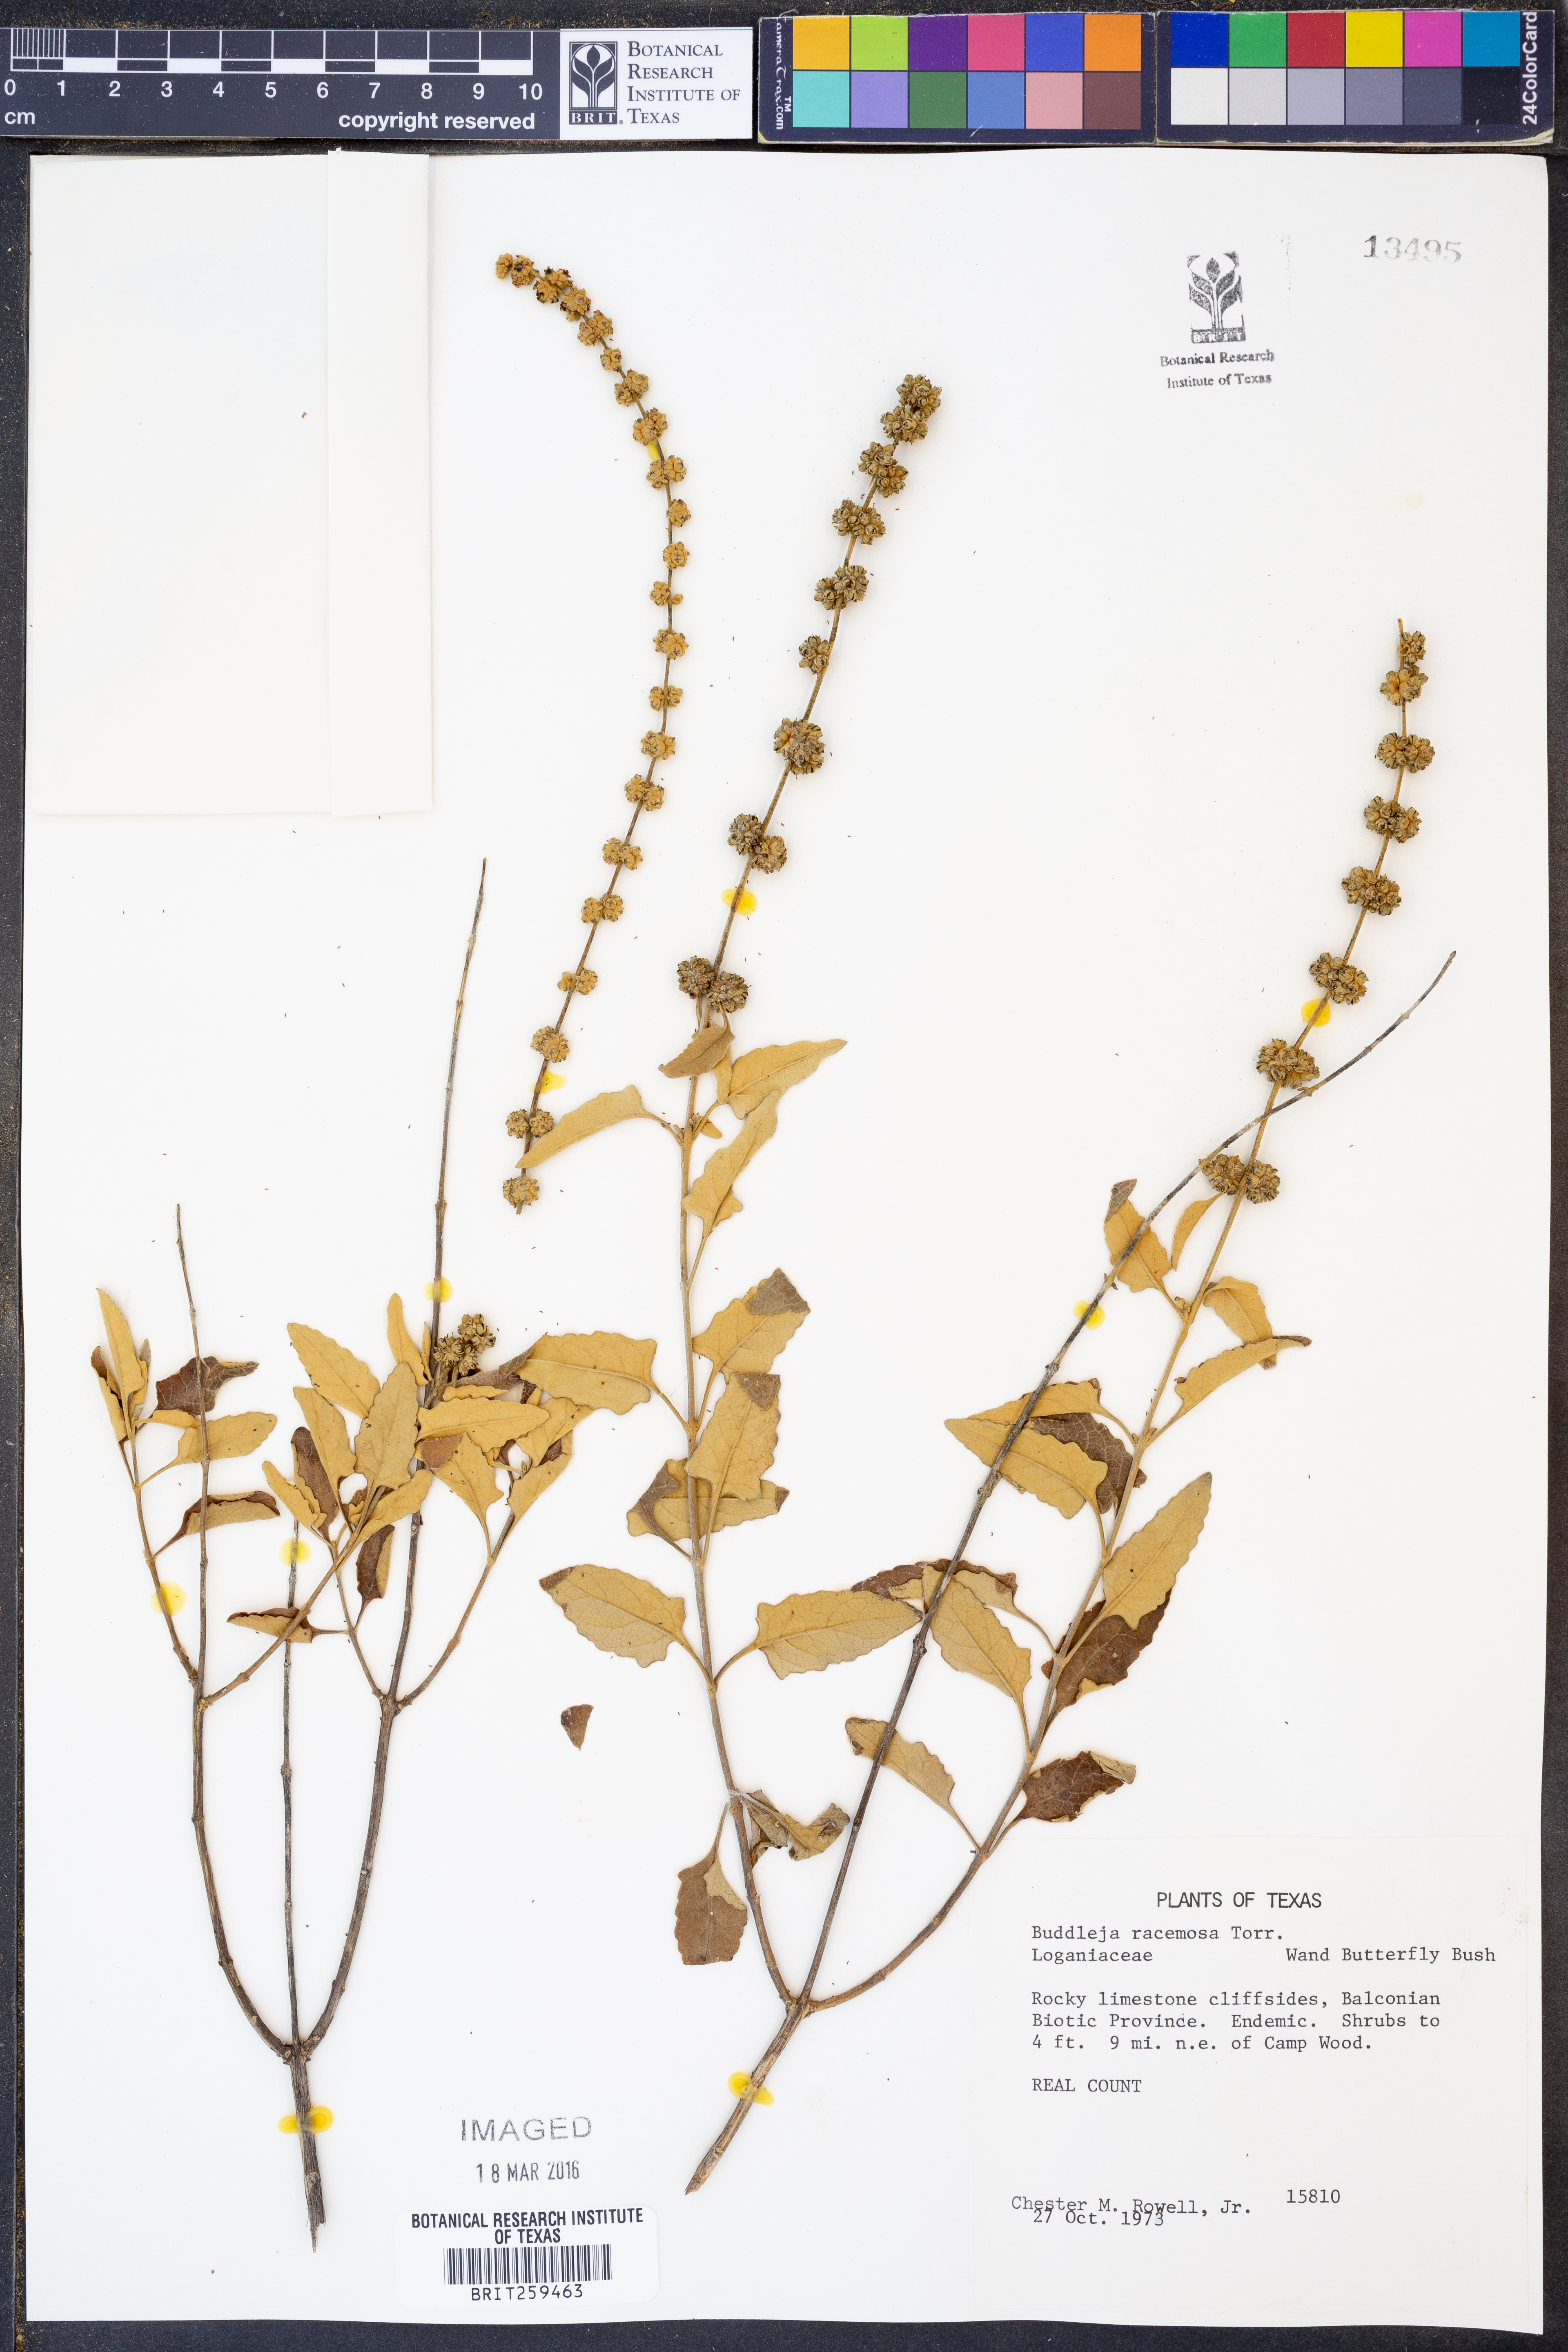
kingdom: Plantae
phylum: Tracheophyta
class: Magnoliopsida
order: Lamiales
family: Scrophulariaceae
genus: Buddleja
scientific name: Buddleja racemosa
